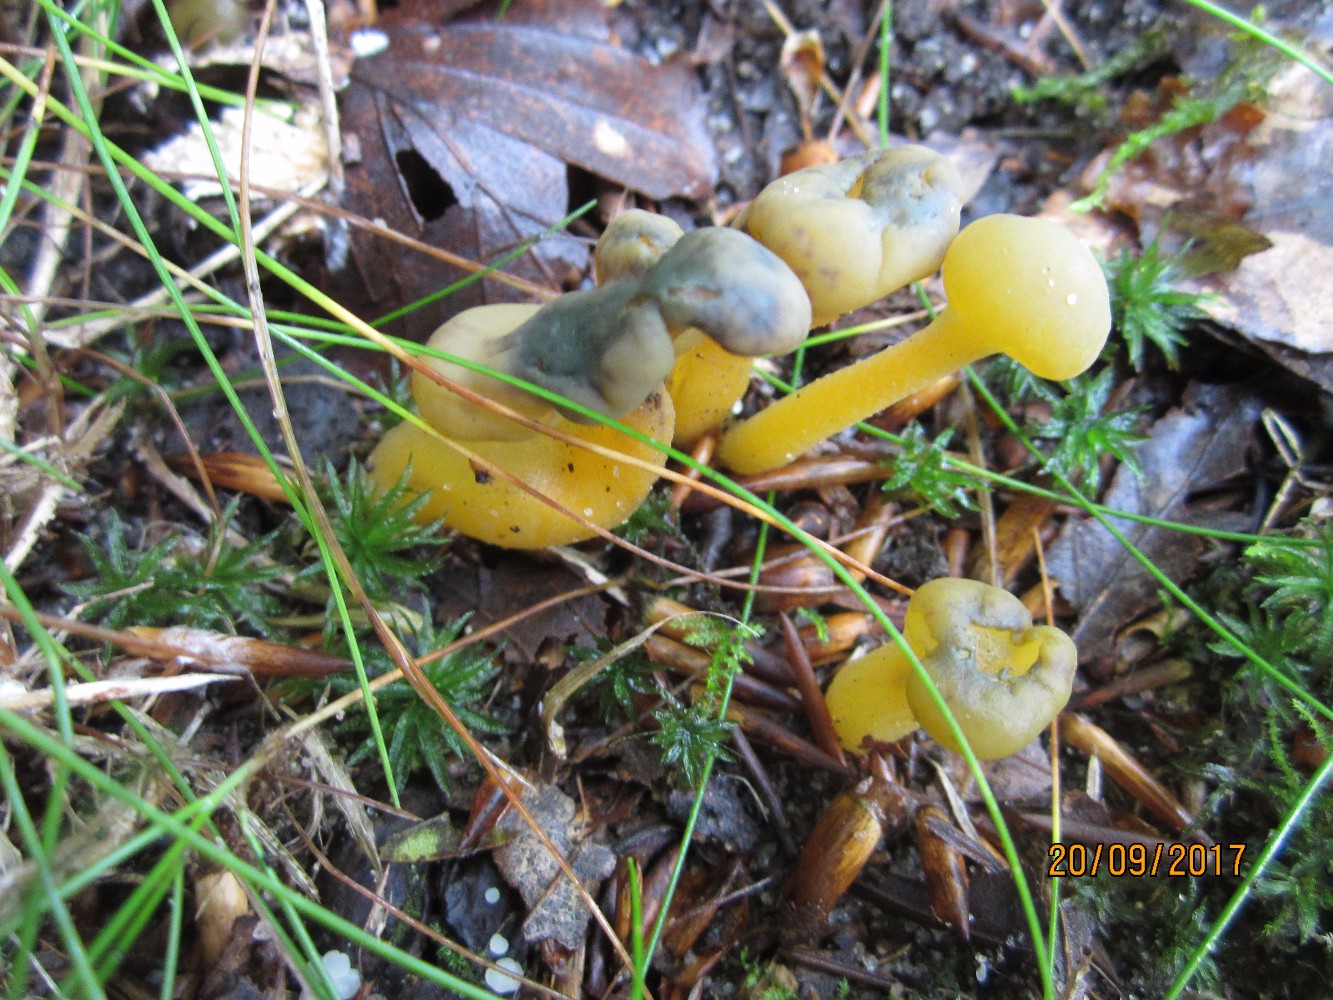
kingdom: Fungi
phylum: Ascomycota
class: Leotiomycetes
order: Leotiales
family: Leotiaceae
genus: Leotia
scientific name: Leotia lubrica
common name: ravsvamp
